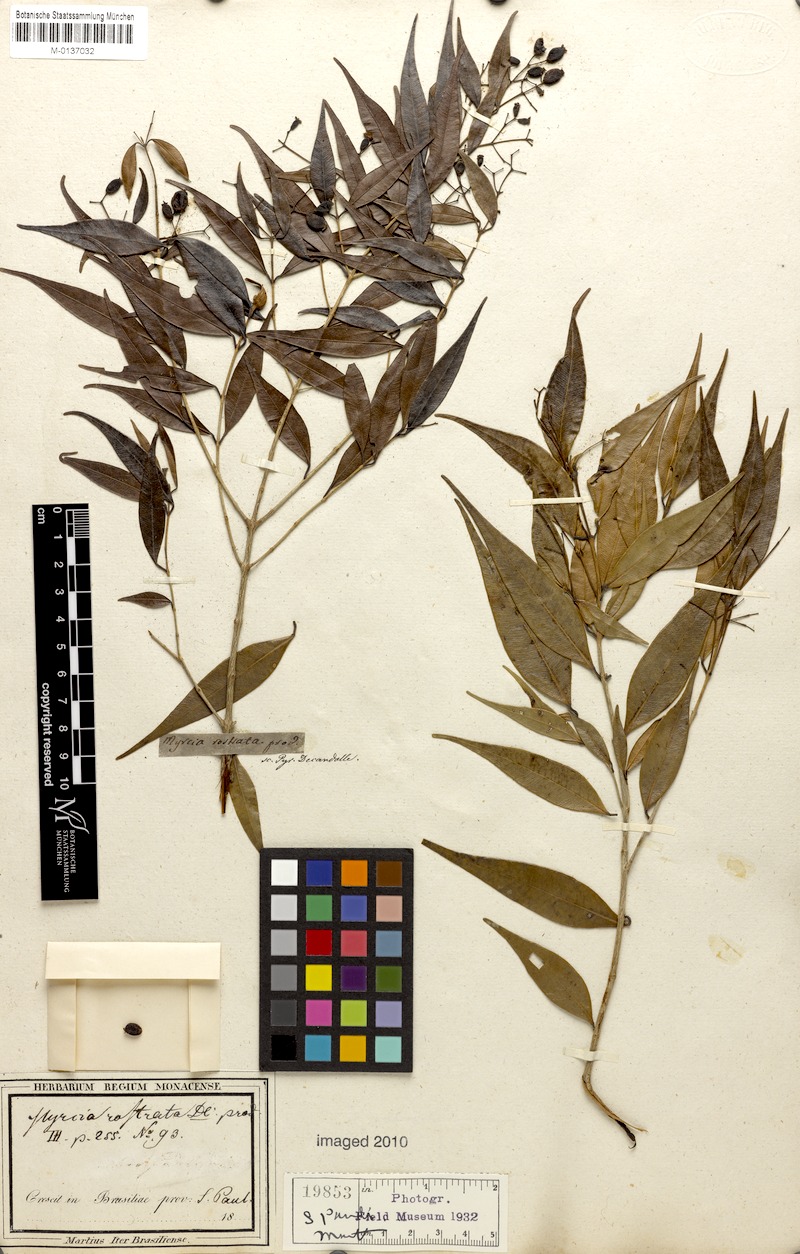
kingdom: Plantae
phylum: Tracheophyta
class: Magnoliopsida
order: Myrtales
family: Myrtaceae
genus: Myrcia
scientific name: Myrcia splendens
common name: Surinam cherry
